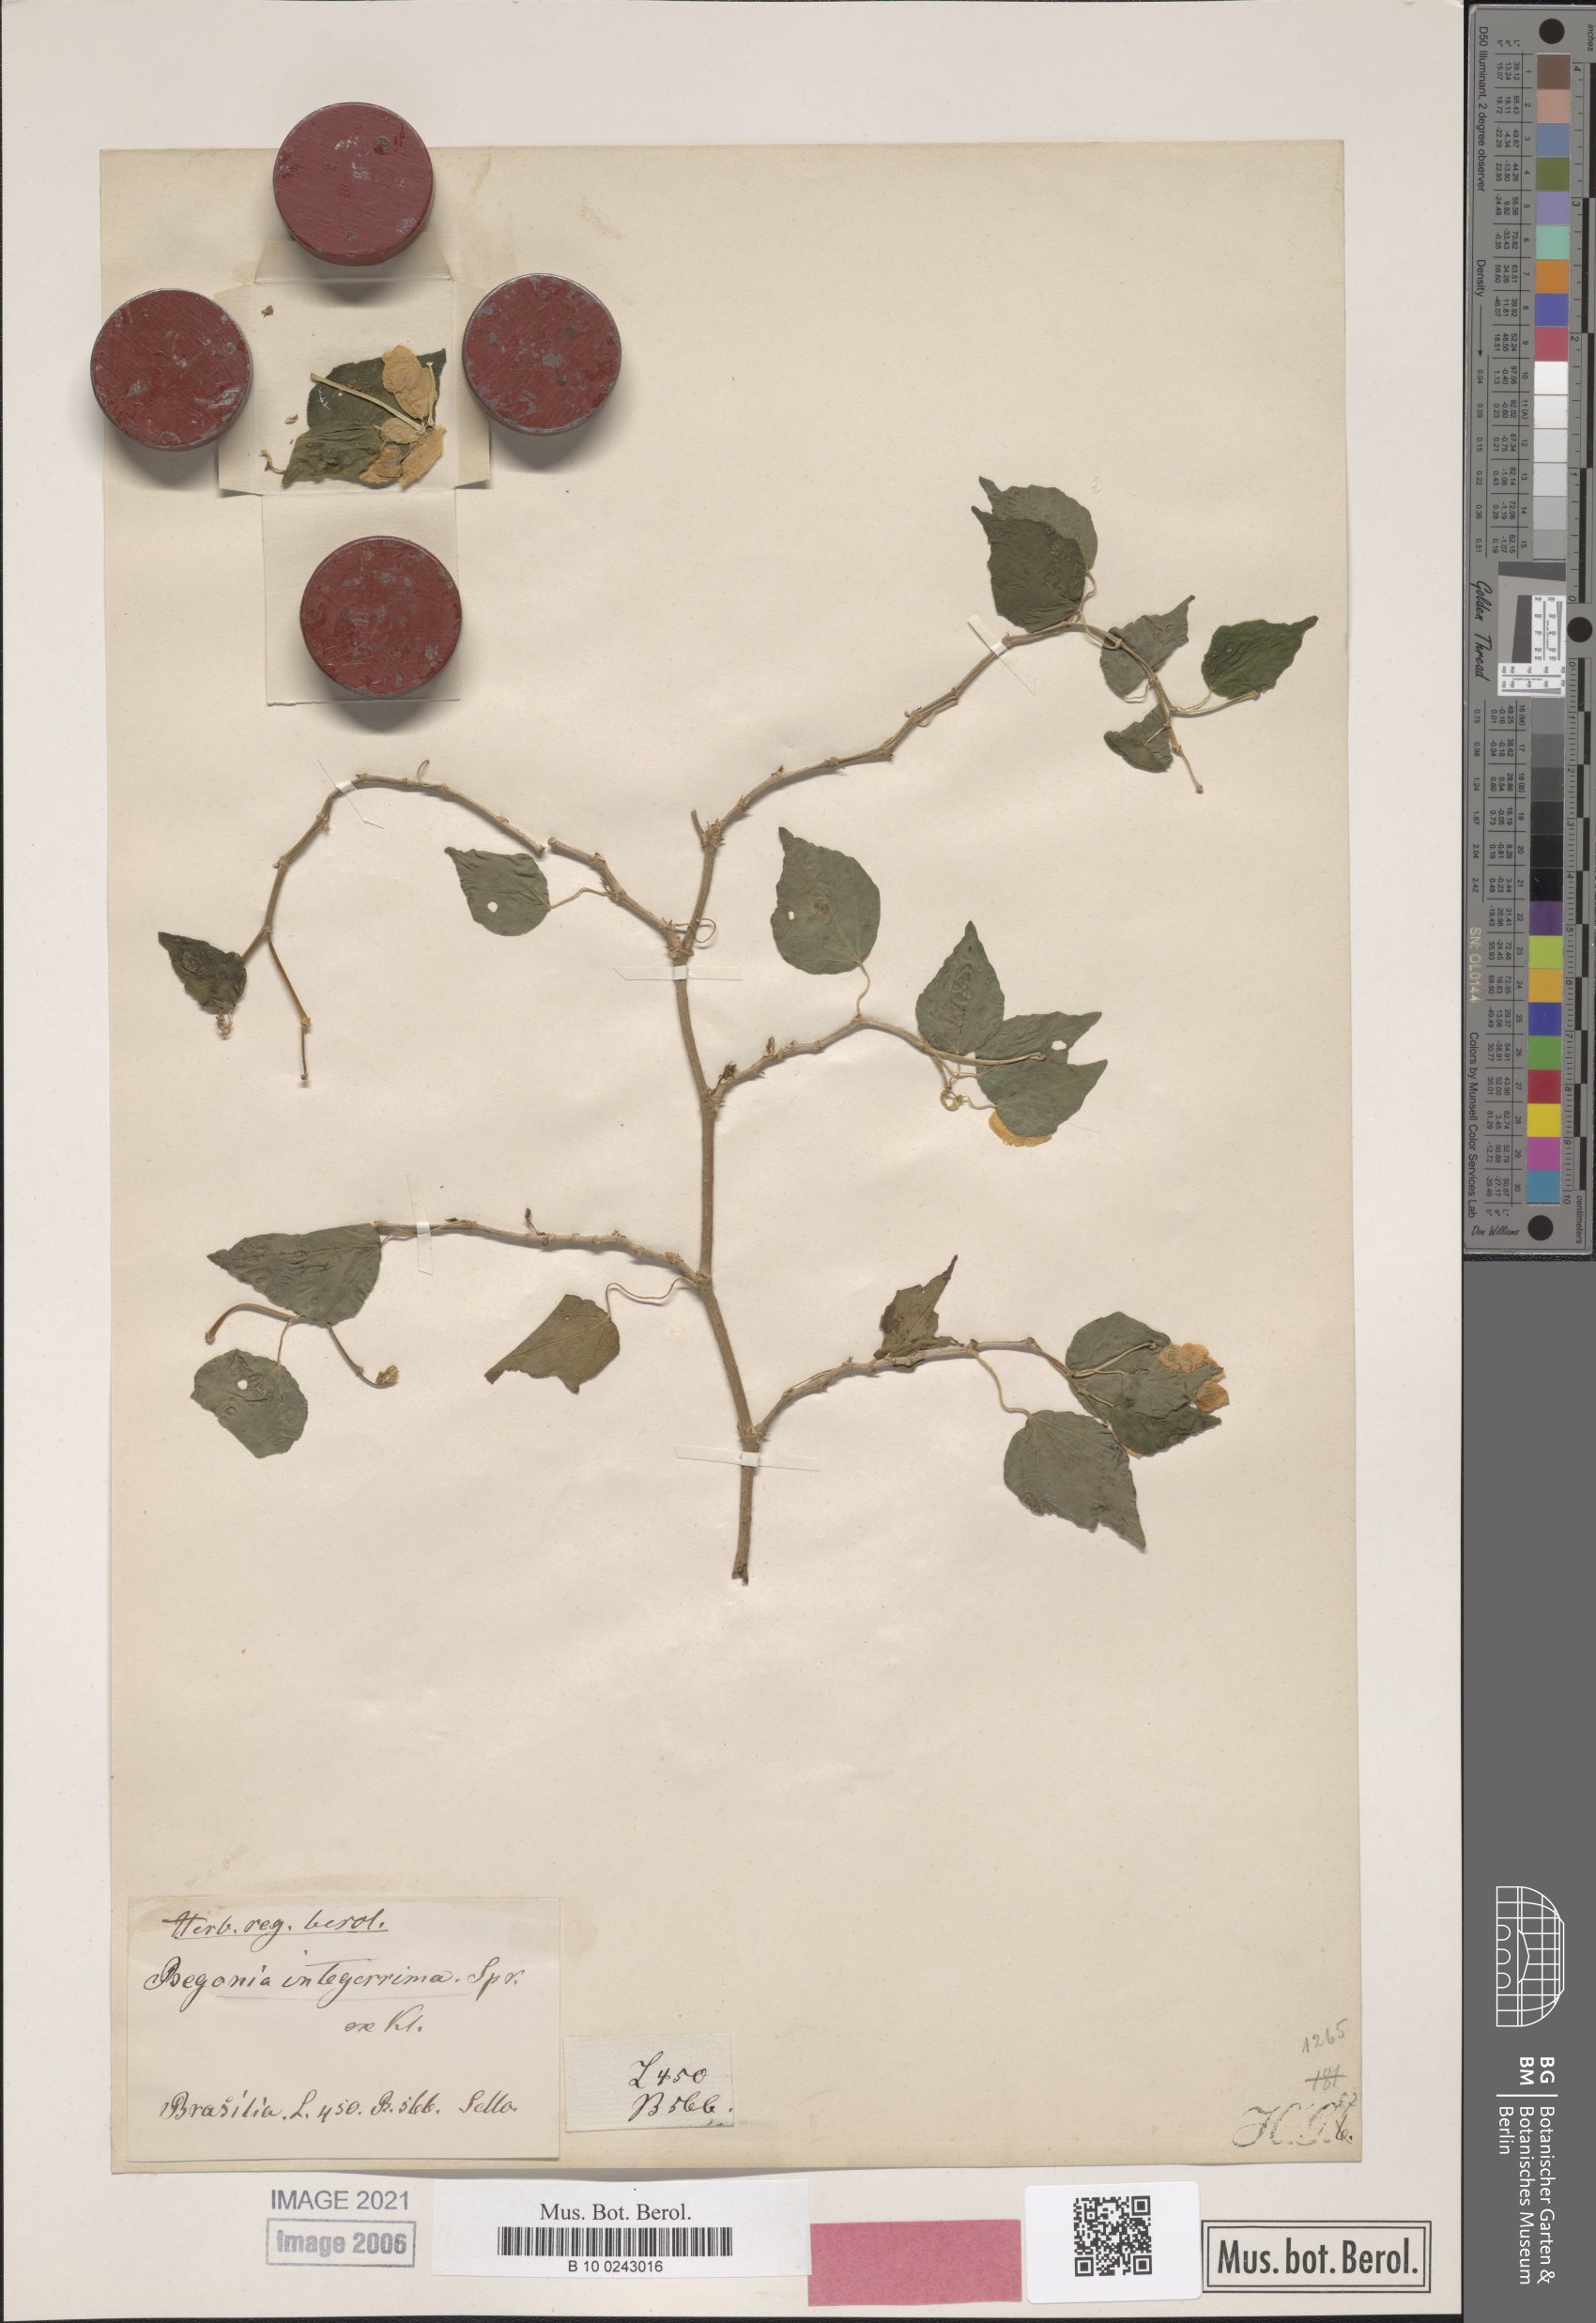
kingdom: Plantae
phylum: Tracheophyta
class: Magnoliopsida
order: Cucurbitales
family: Begoniaceae
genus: Begonia
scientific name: Begonia integerrima
